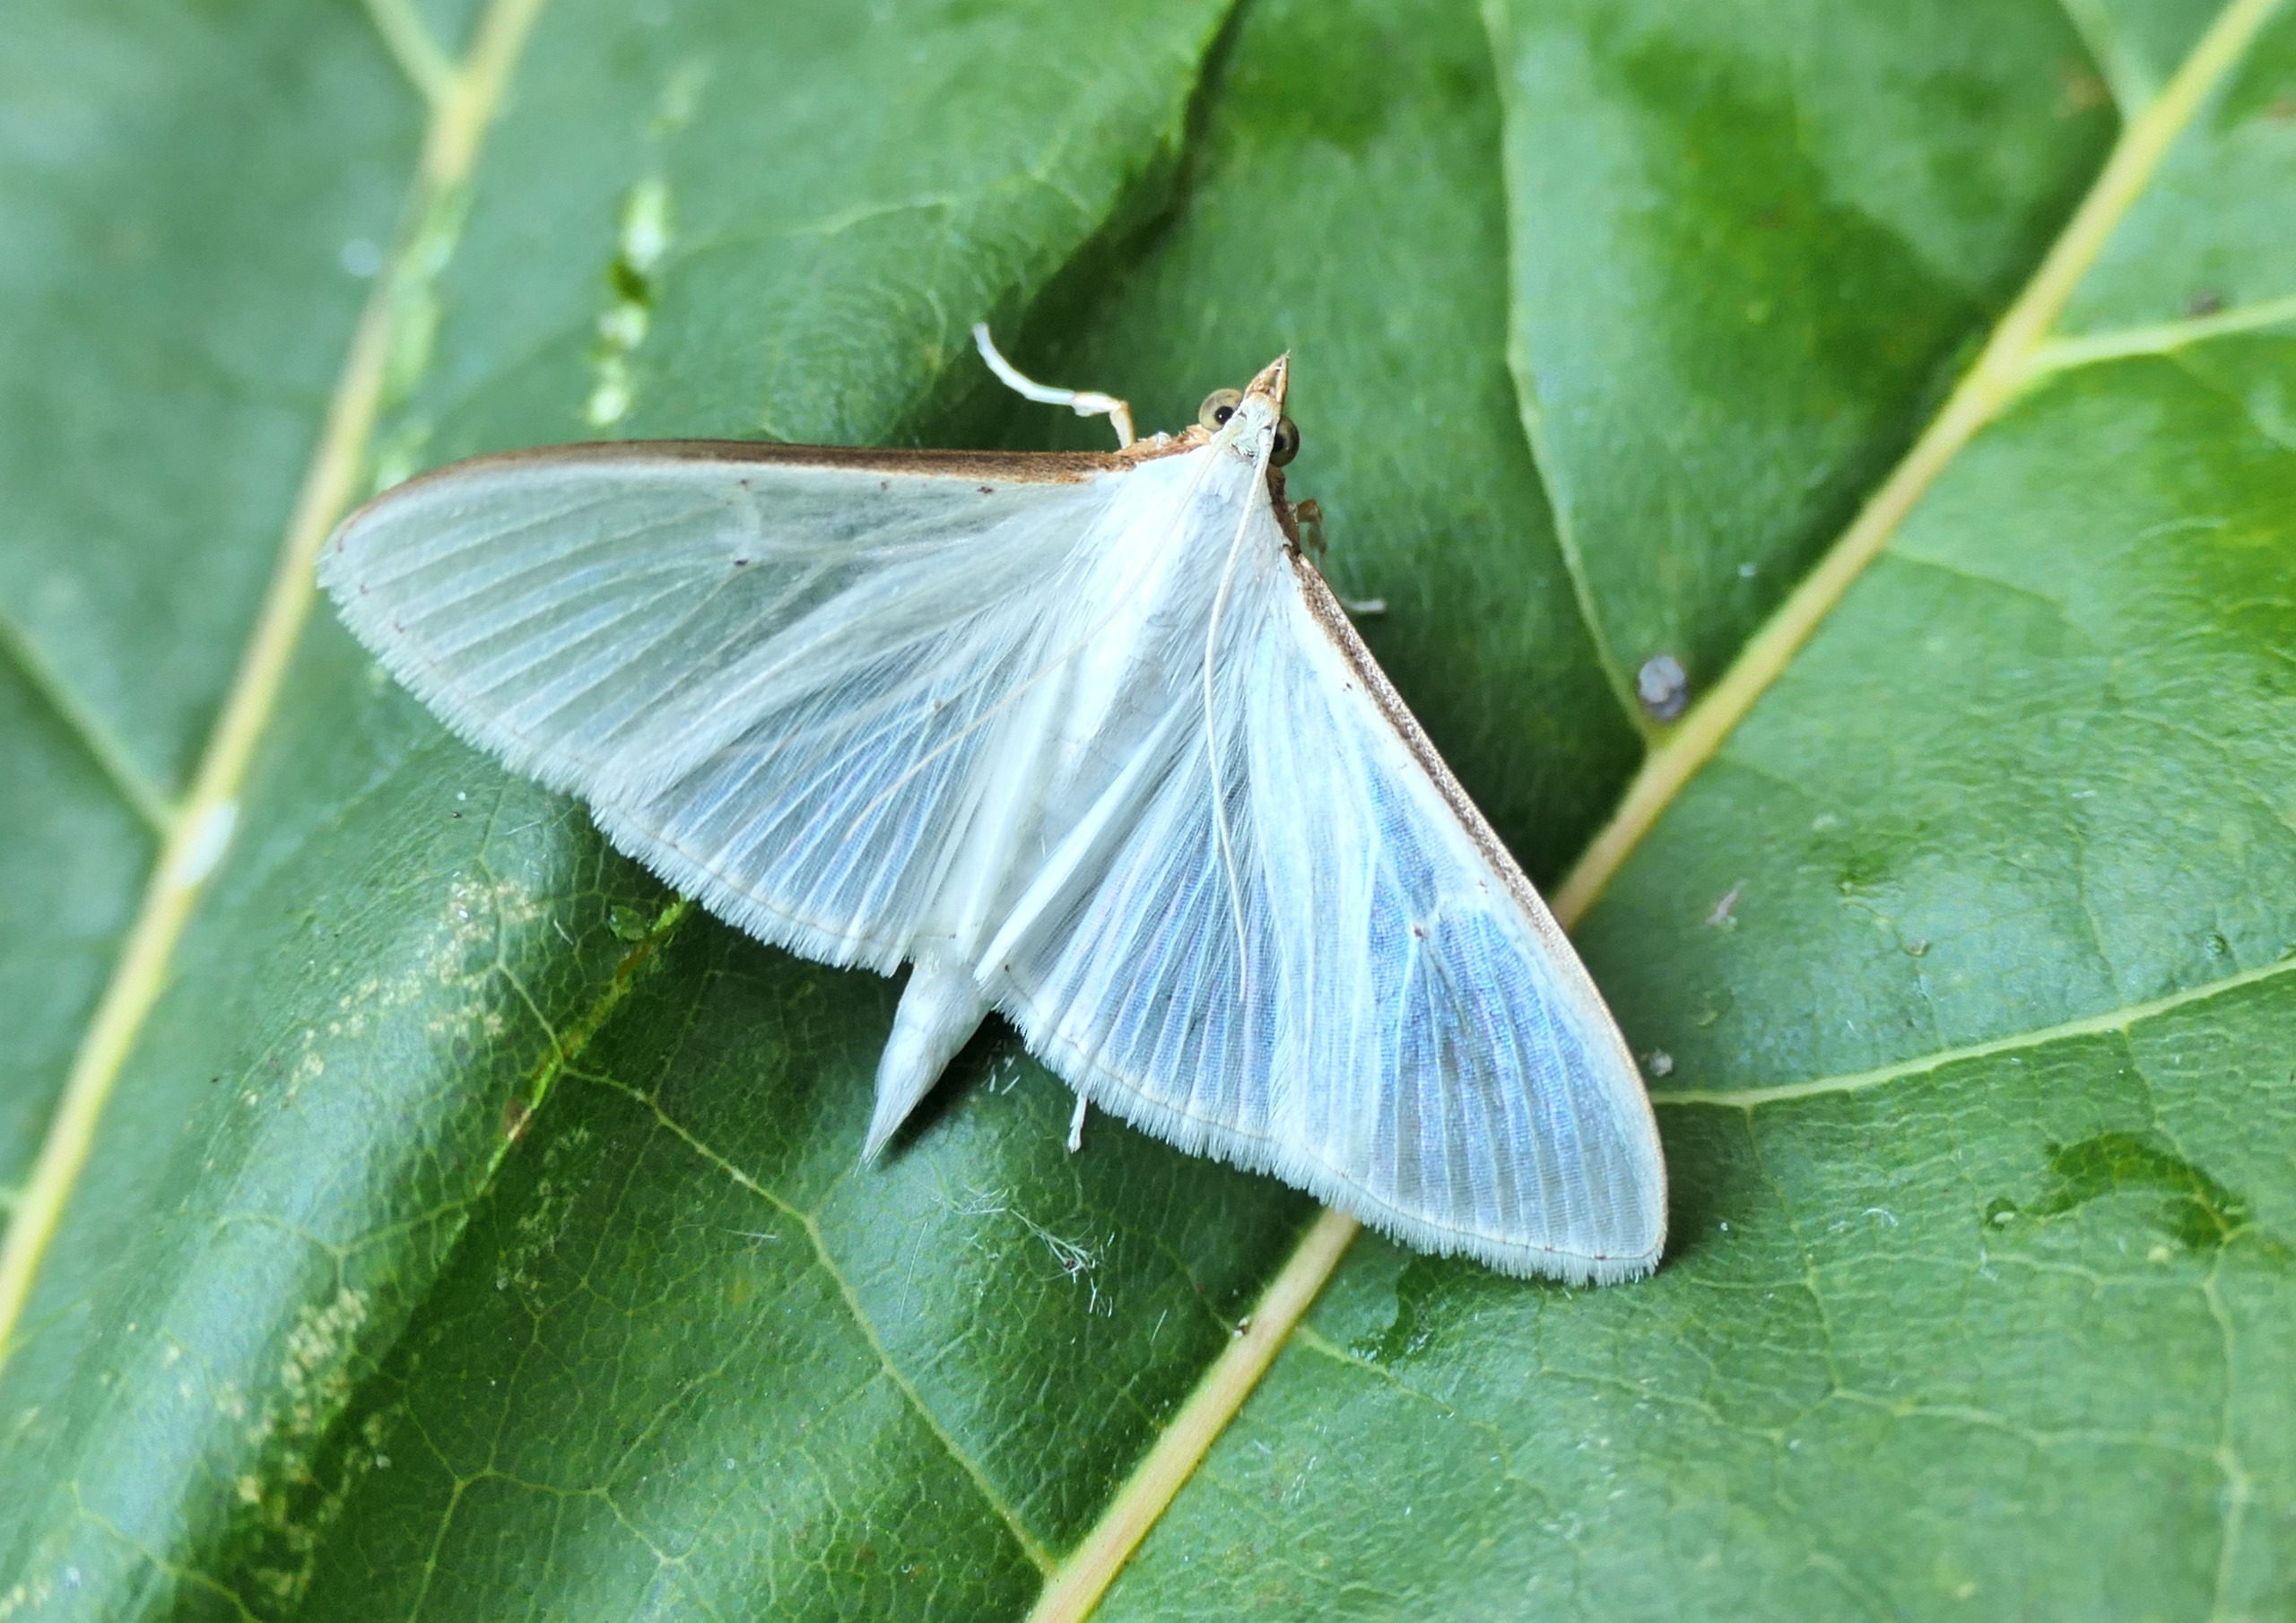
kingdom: Animalia
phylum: Arthropoda
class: Insecta
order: Lepidoptera
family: Crambidae
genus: Palpita
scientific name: Palpita vitrealis
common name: Hvidt halvmøl
